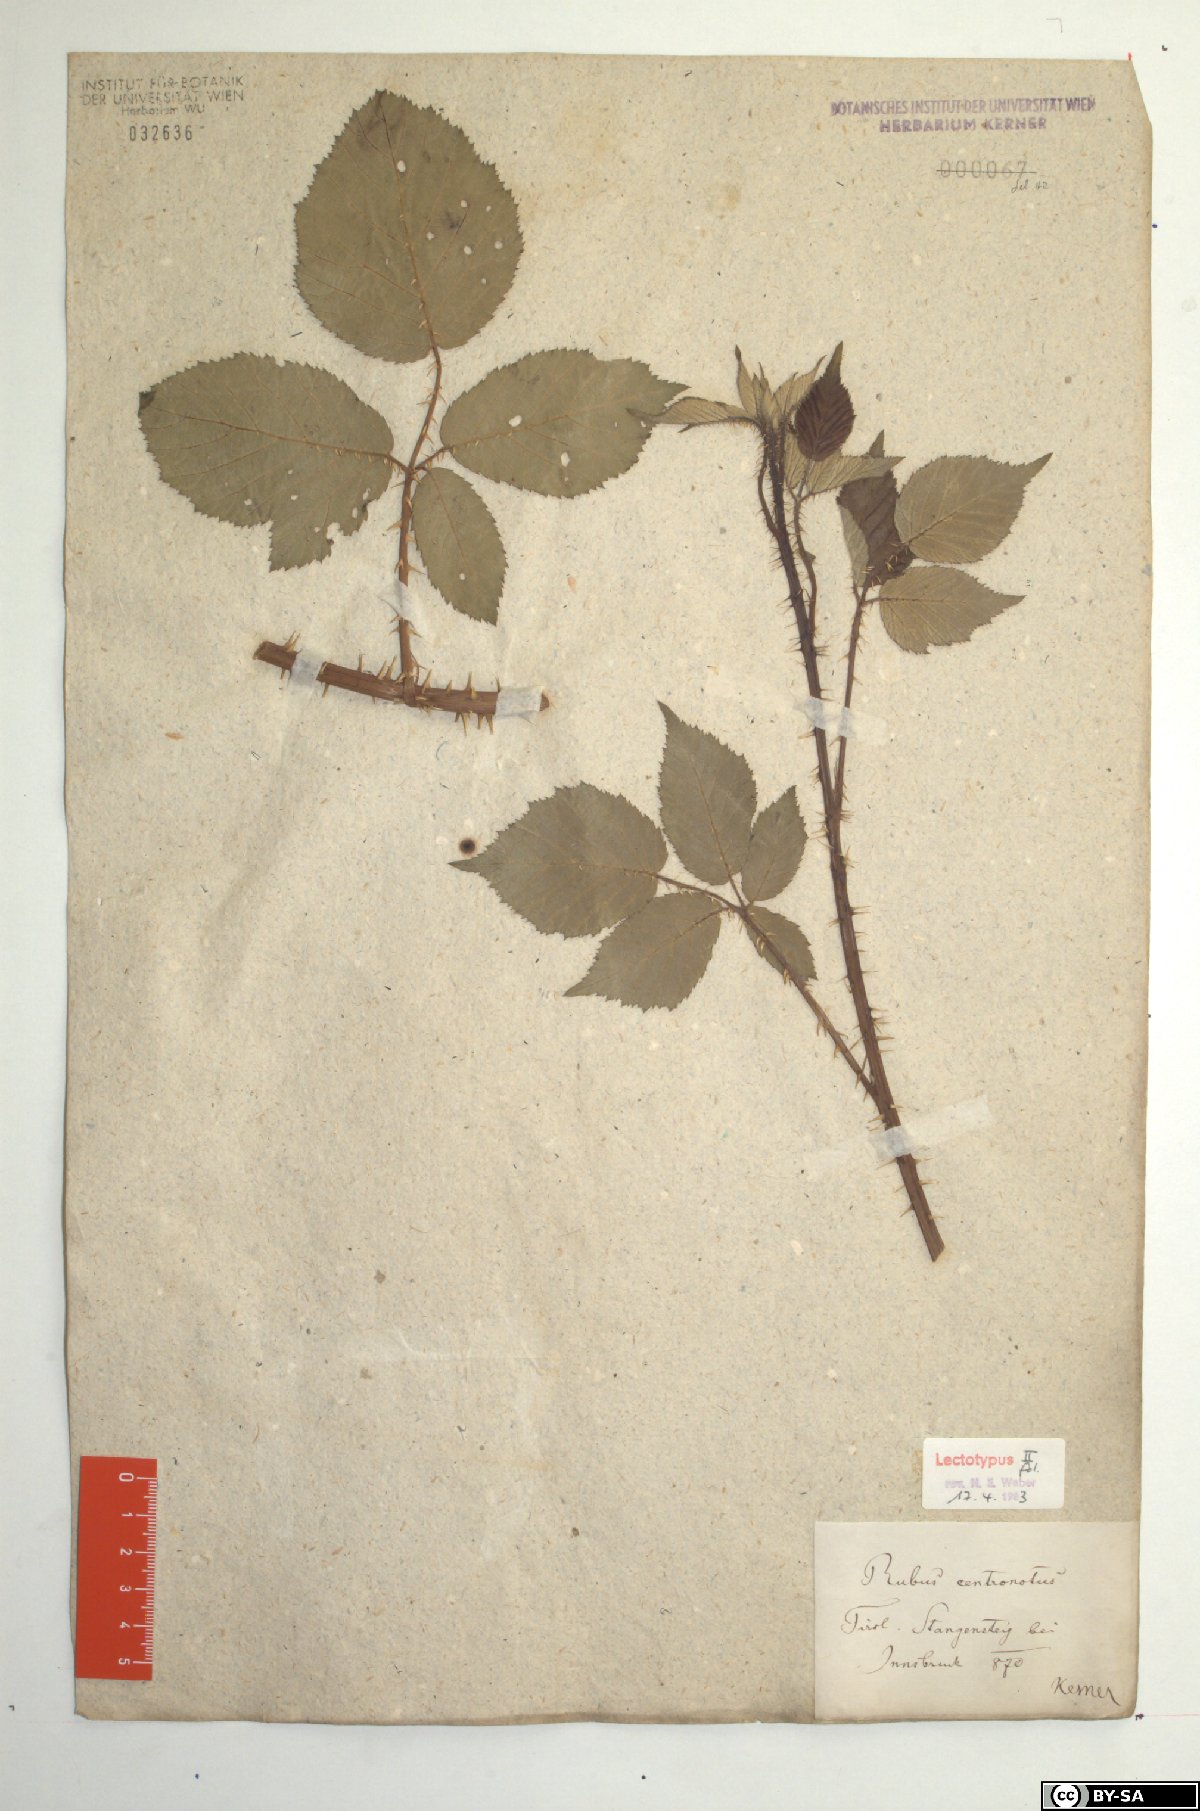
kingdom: Plantae
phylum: Tracheophyta
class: Magnoliopsida
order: Rosales
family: Rosaceae
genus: Rubus
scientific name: Rubus centronotus
